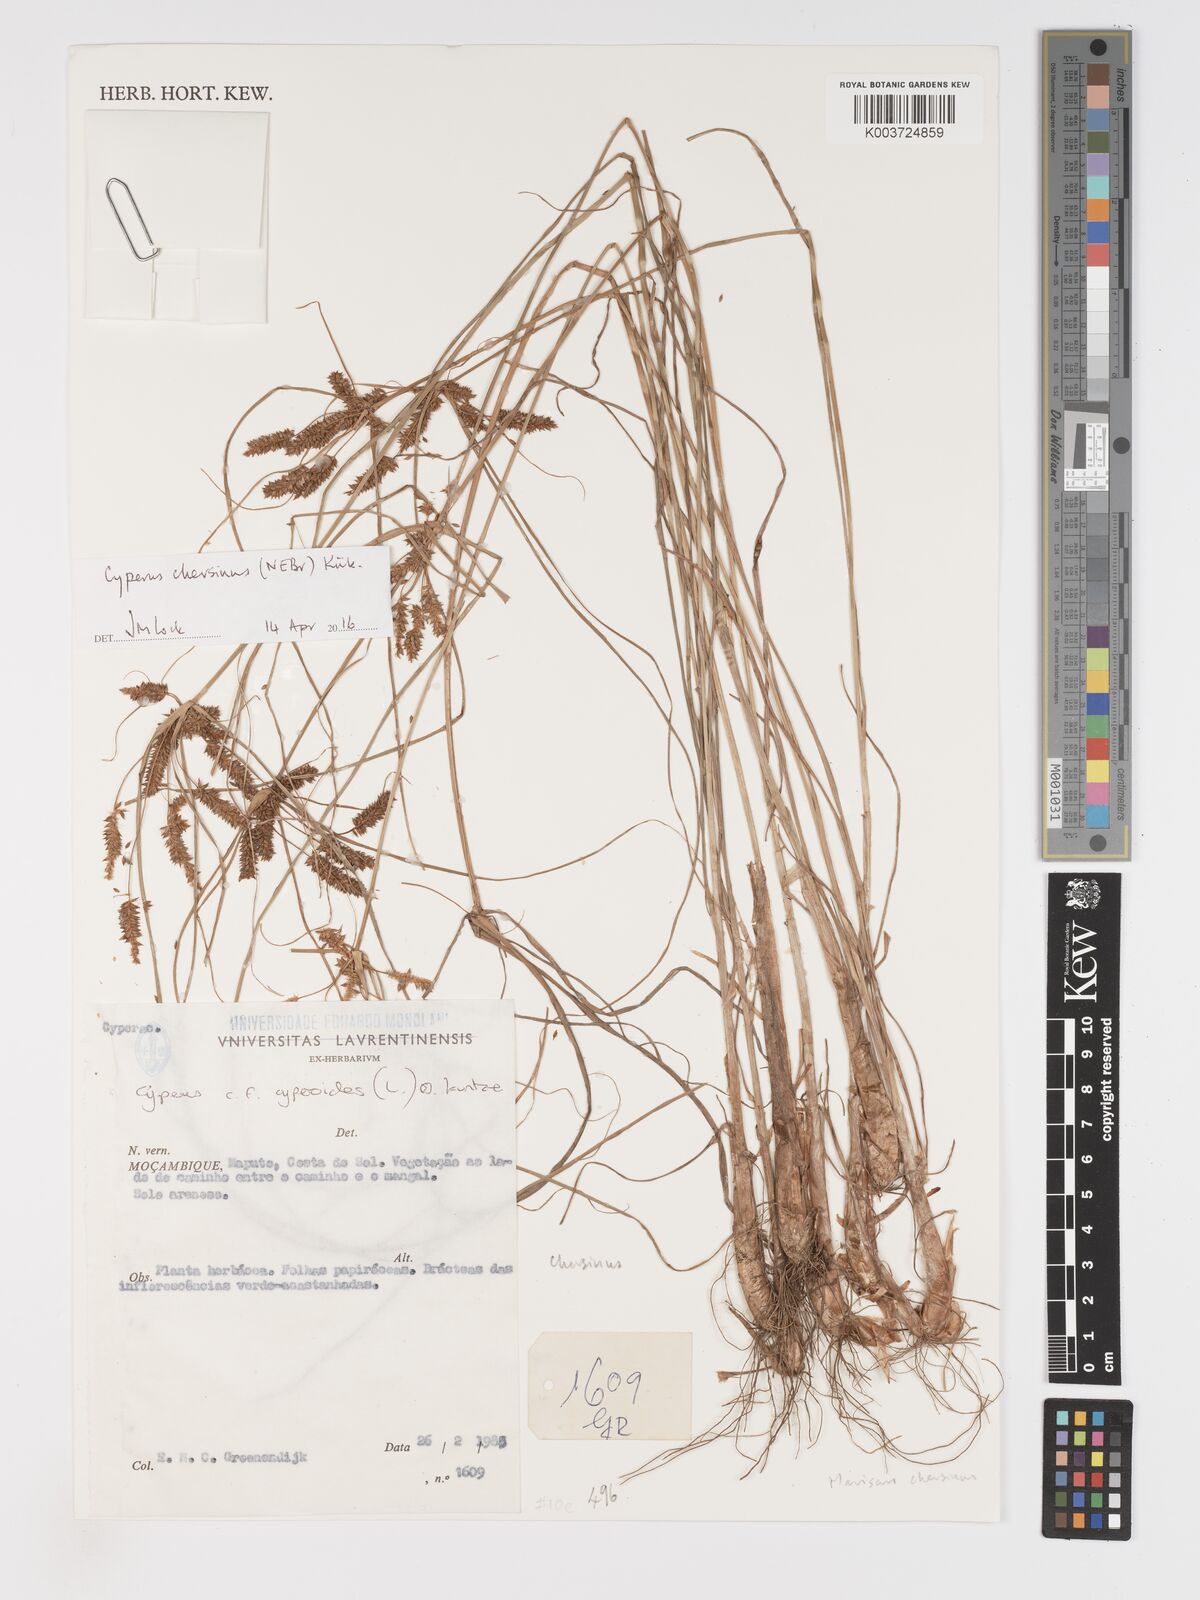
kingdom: Plantae
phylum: Tracheophyta
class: Liliopsida
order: Poales
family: Cyperaceae
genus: Cyperus
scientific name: Cyperus chersinus
